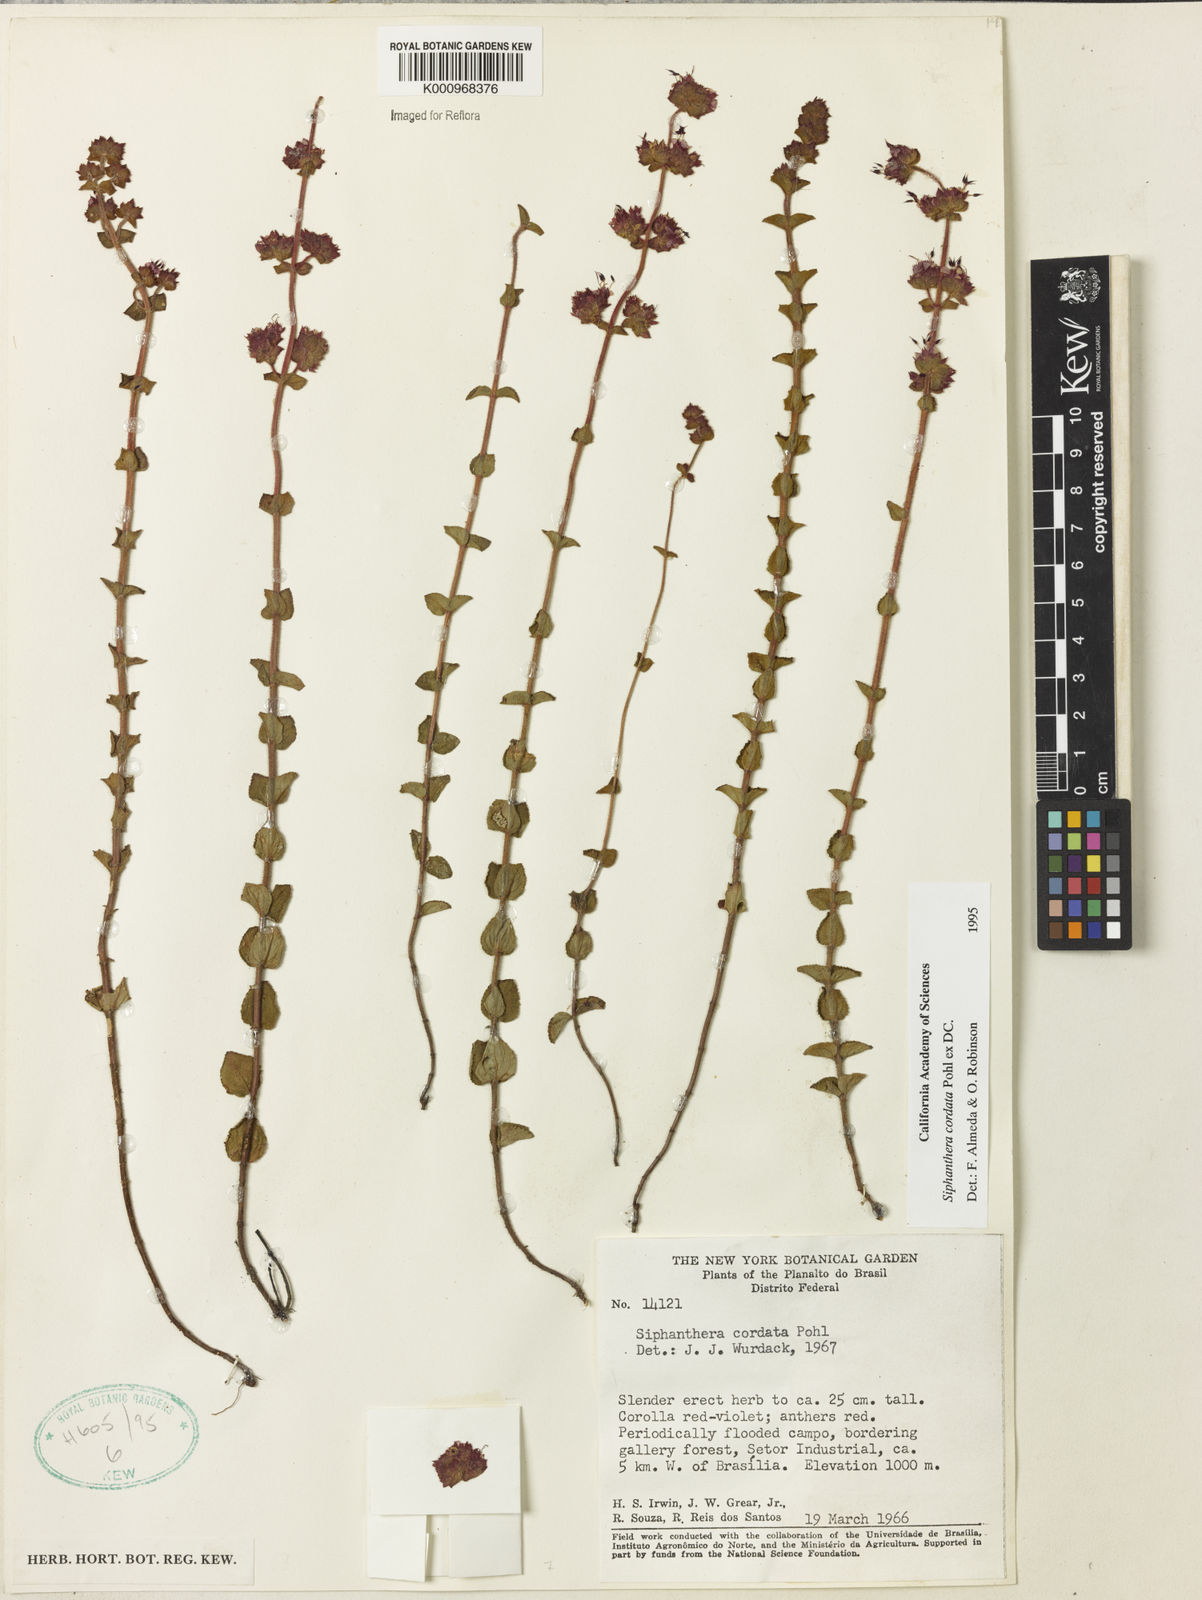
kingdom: Plantae
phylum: Tracheophyta
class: Magnoliopsida
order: Myrtales
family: Melastomataceae
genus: Siphanthera
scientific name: Siphanthera
